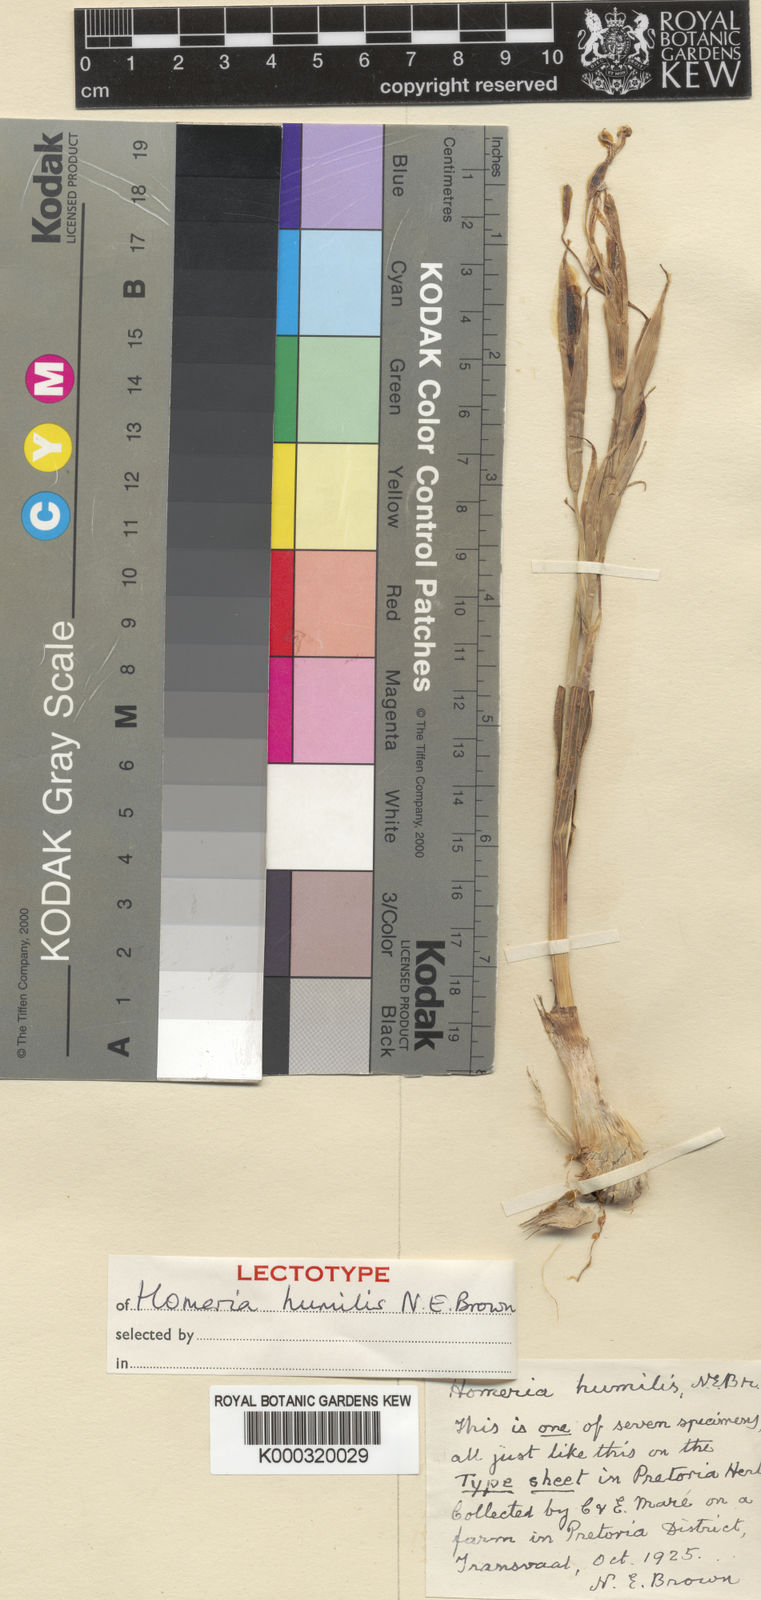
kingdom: Plantae
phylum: Tracheophyta
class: Liliopsida
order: Asparagales
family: Iridaceae
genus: Moraea
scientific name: Moraea pallida
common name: Yellow tulp
